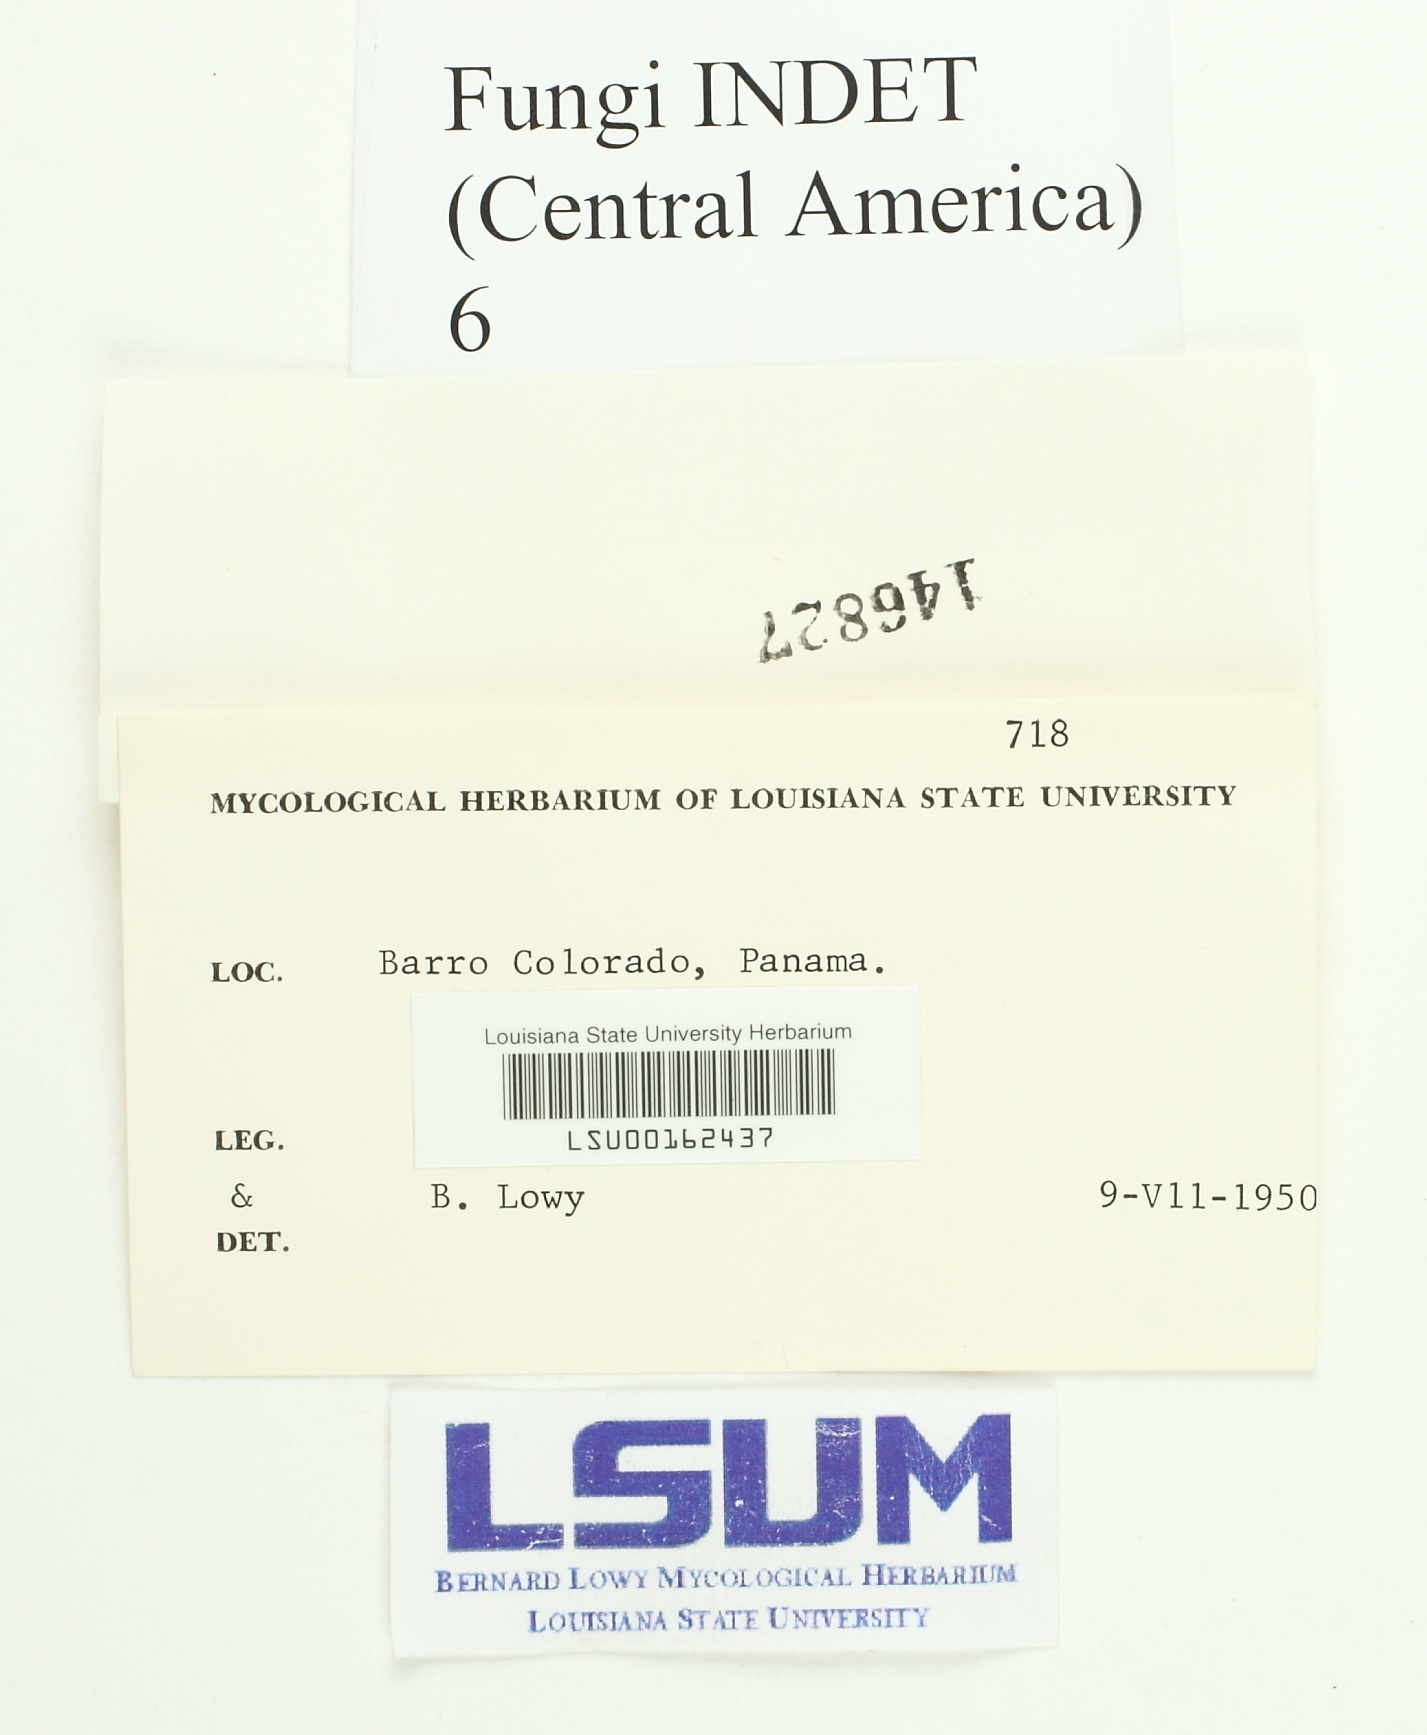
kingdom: Fungi
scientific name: Fungi
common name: Fungi
